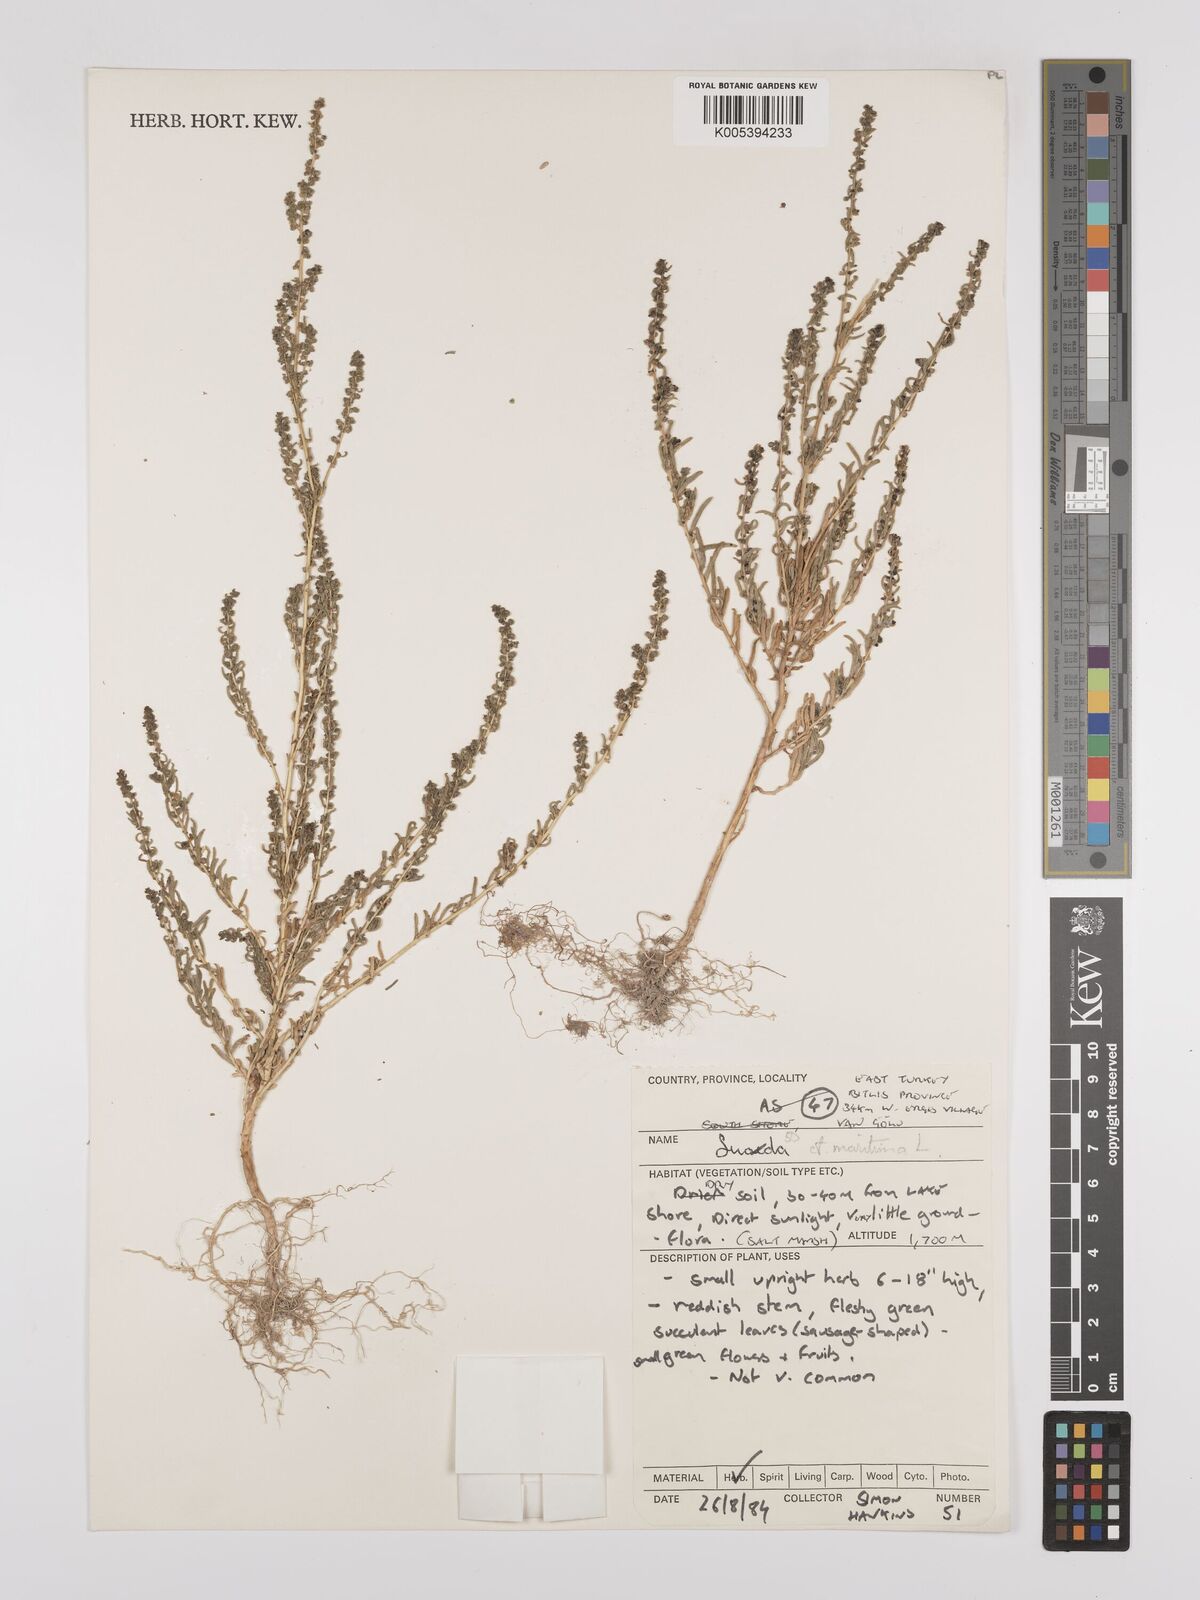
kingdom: Plantae
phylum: Tracheophyta
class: Magnoliopsida
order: Caryophyllales
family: Amaranthaceae
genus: Suaeda
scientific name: Suaeda
